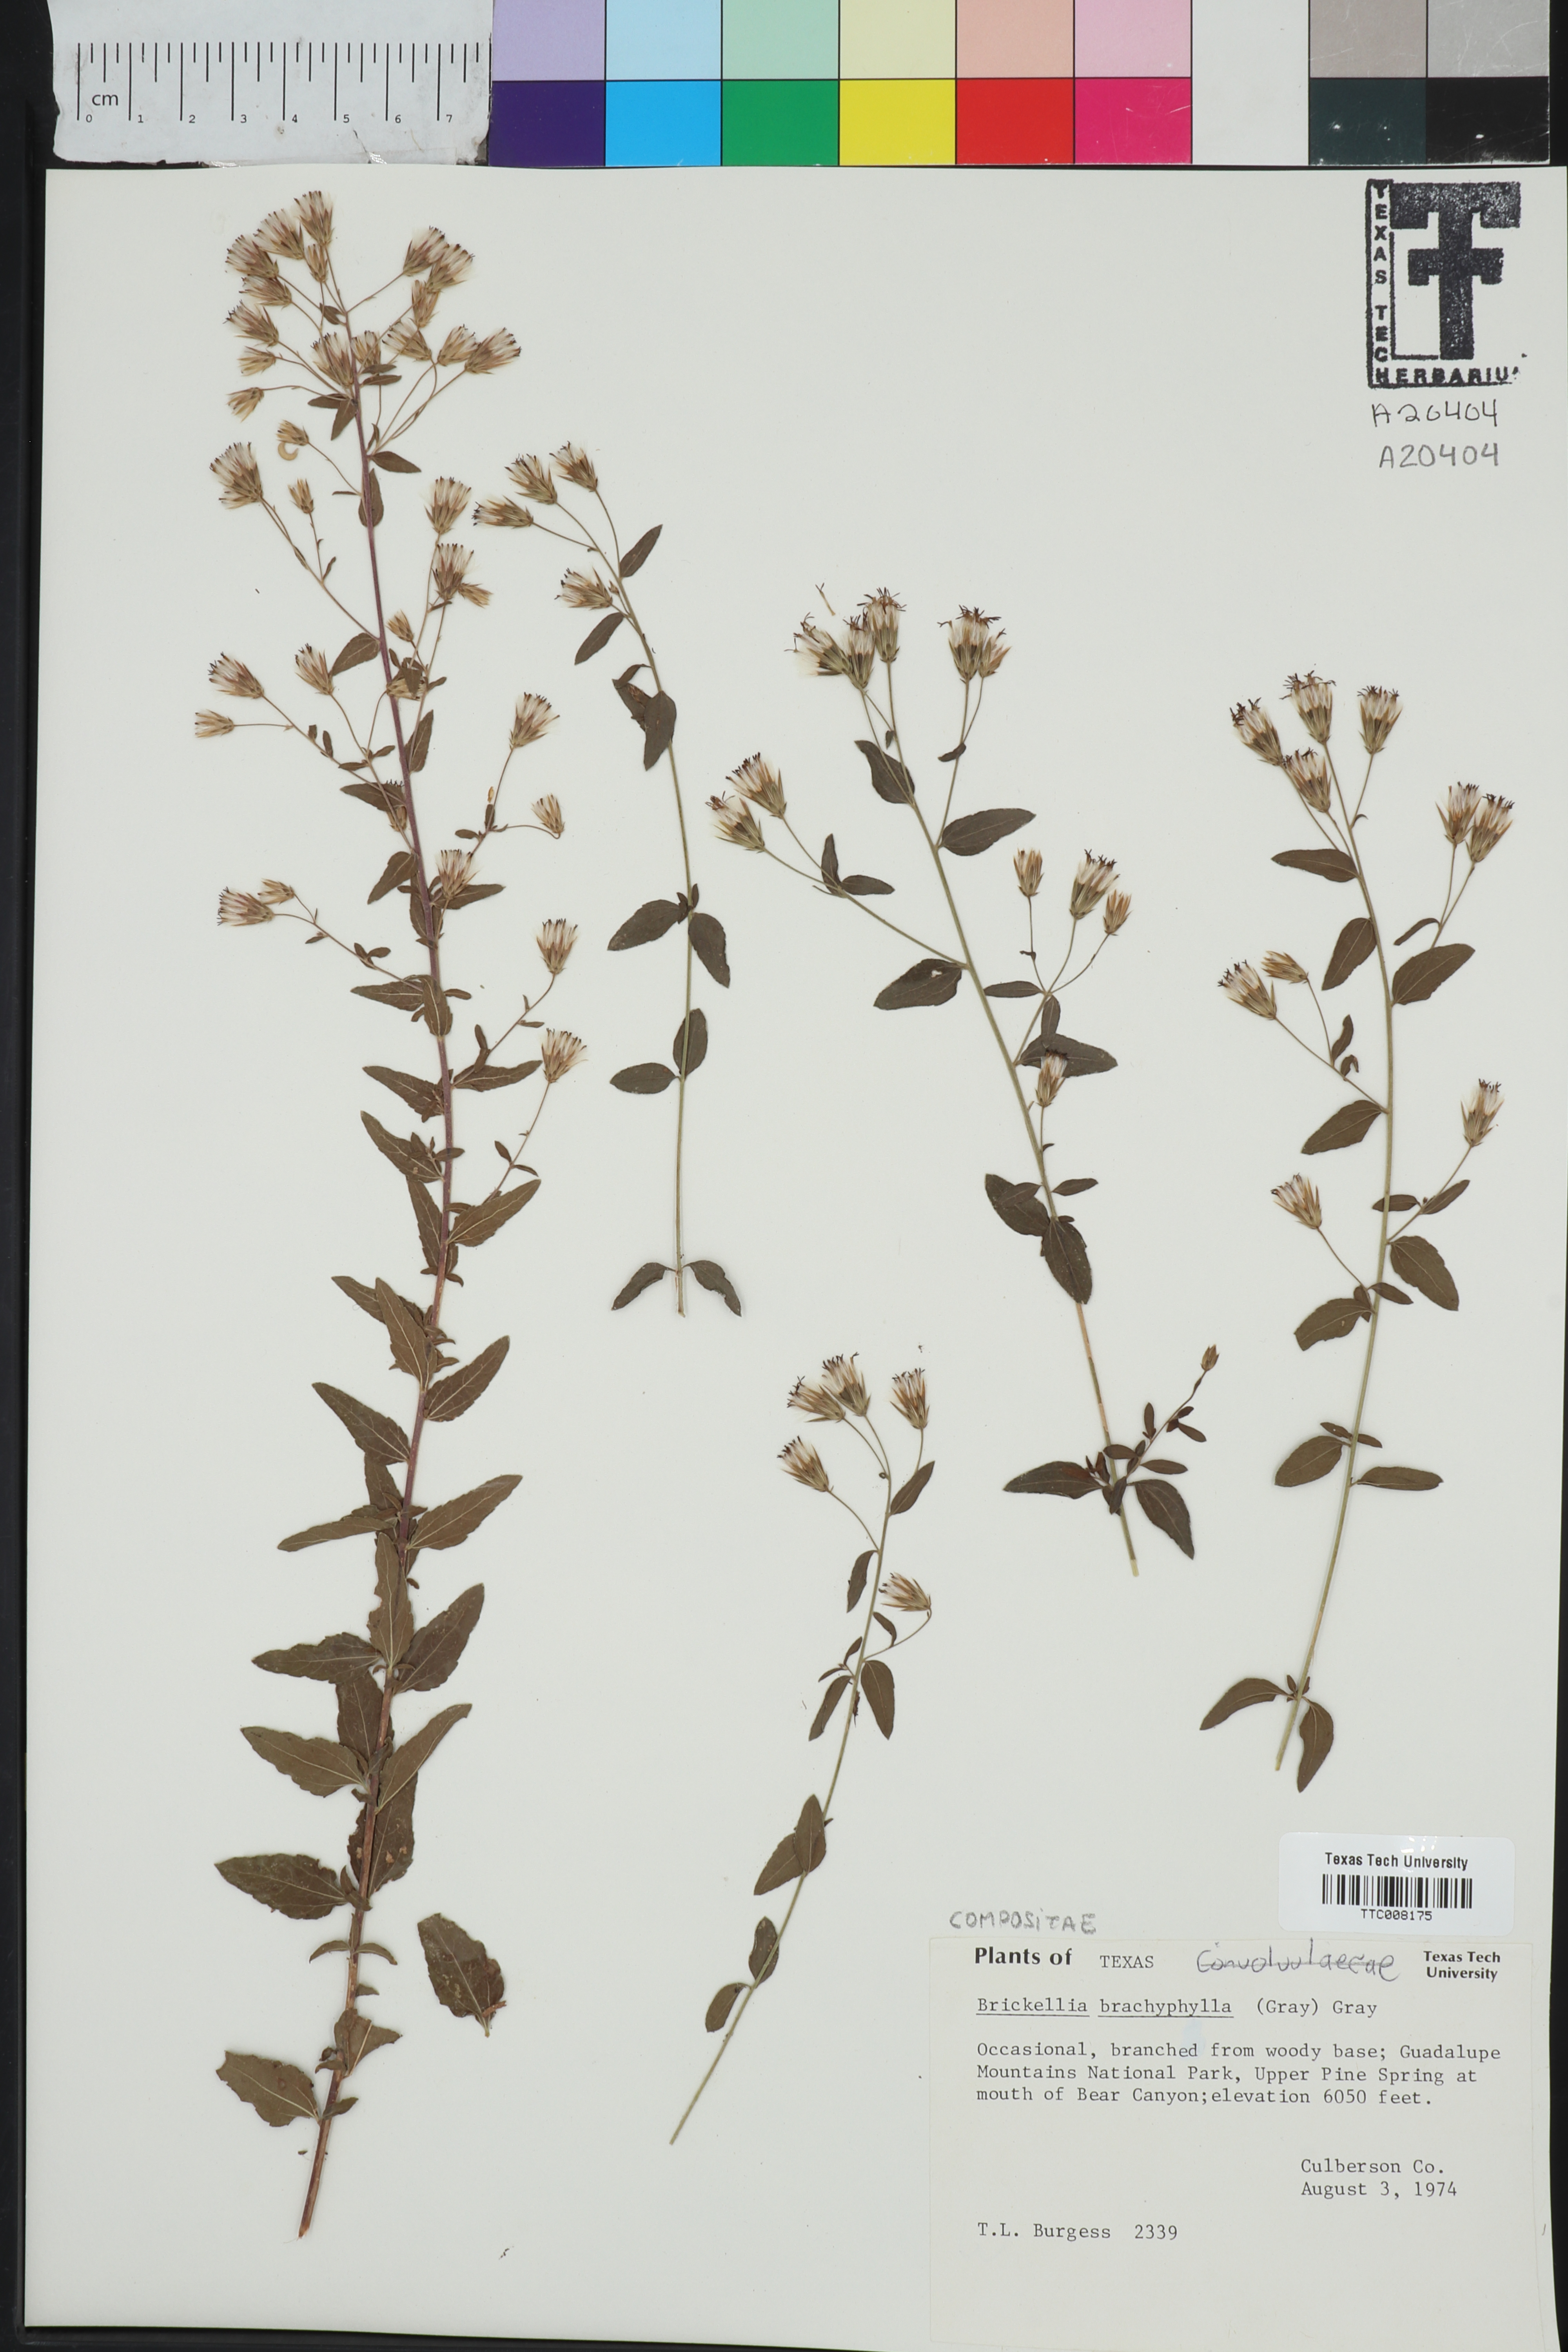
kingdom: Plantae
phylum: Tracheophyta
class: Magnoliopsida
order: Asterales
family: Asteraceae
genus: Brickellia
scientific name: Brickellia brachyphylla
